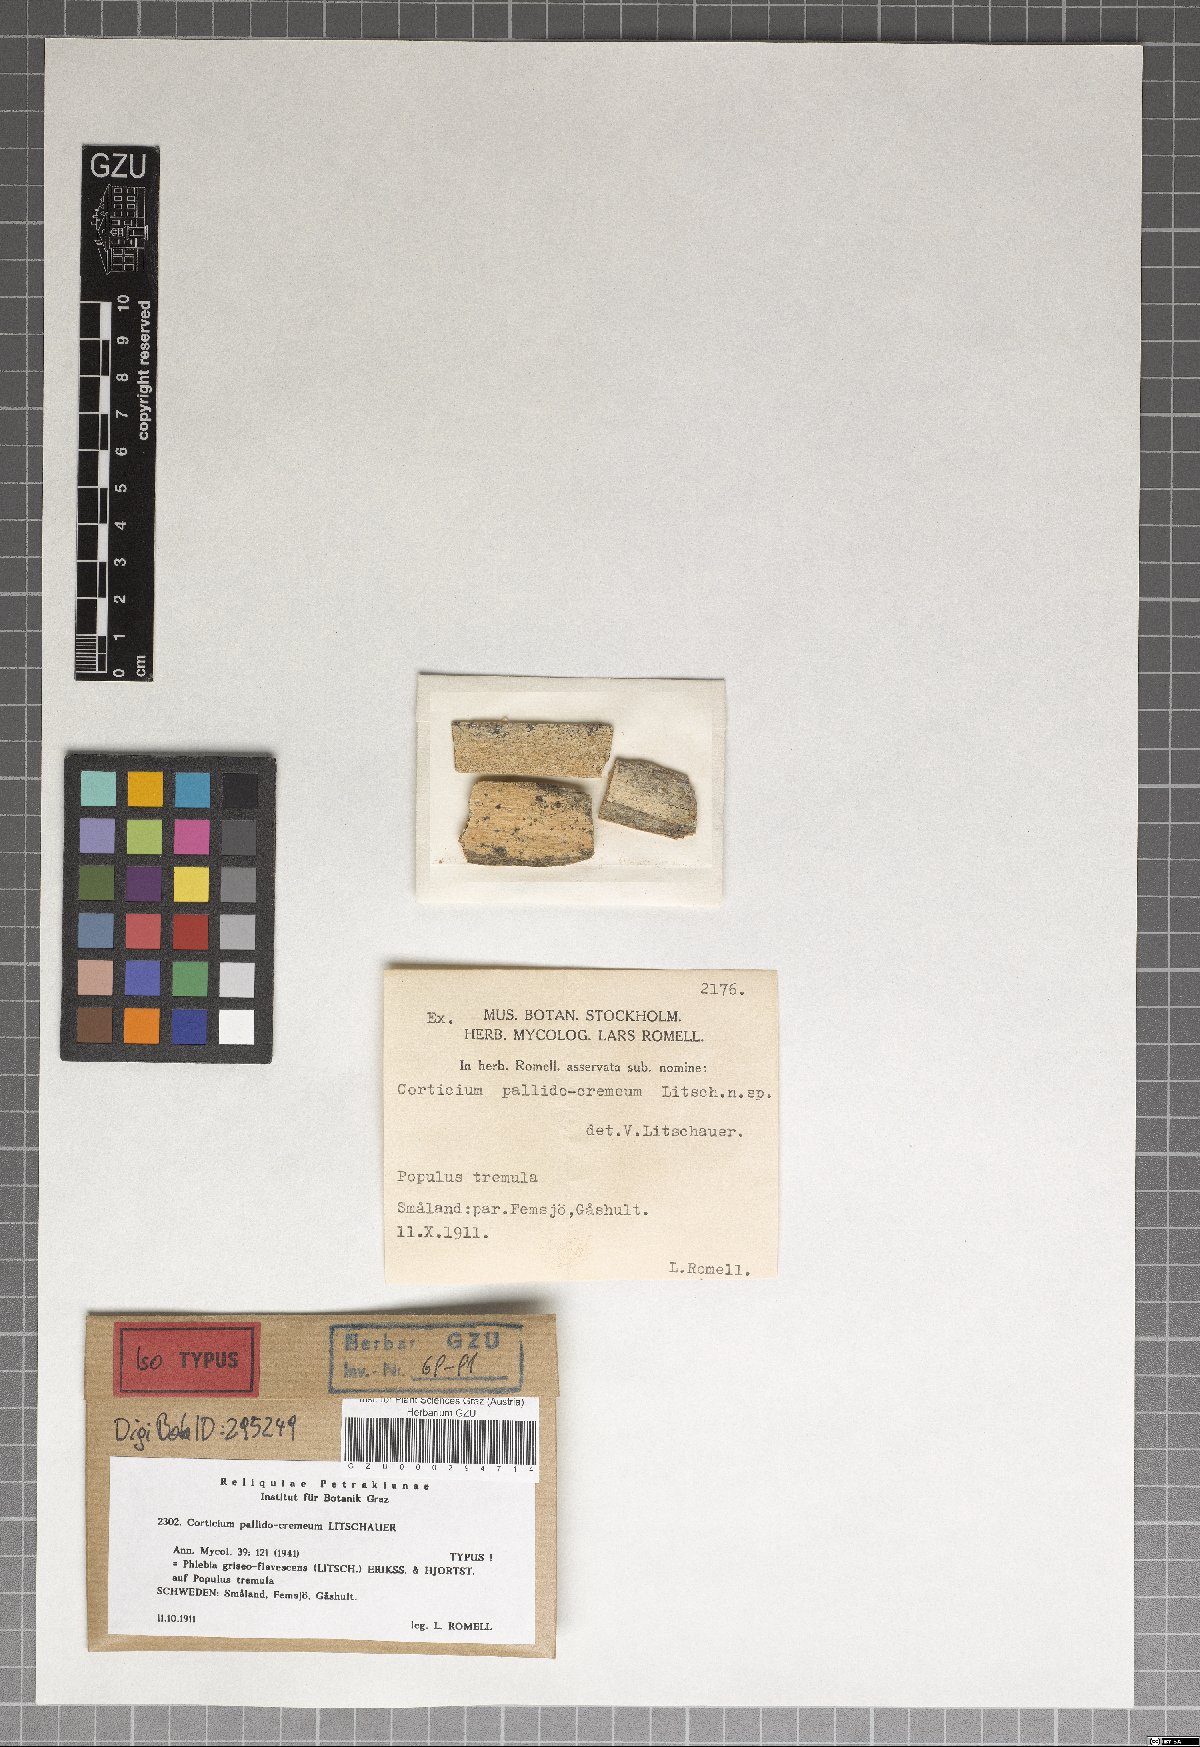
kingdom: Fungi
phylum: Basidiomycota
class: Agaricomycetes
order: Polyporales
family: Fomitopsidaceae
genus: Antrodia
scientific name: Antrodia griseoflavescens
